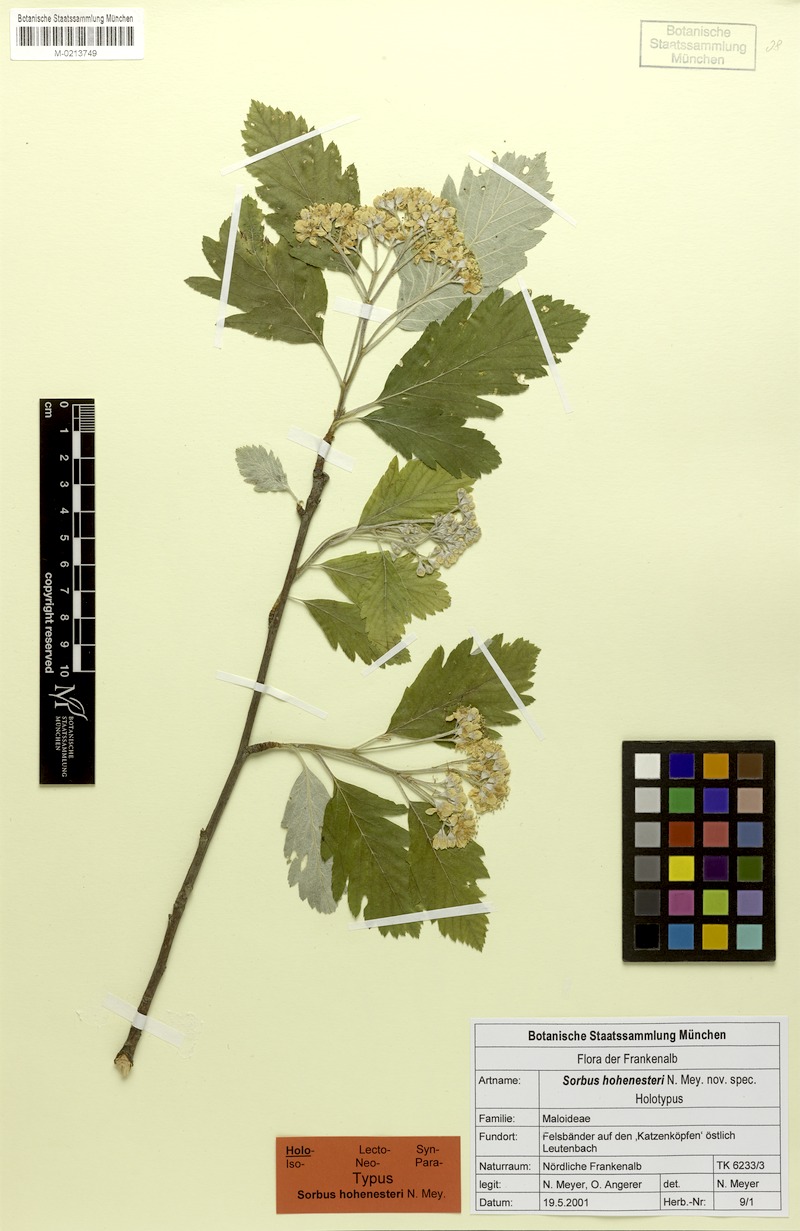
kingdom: Plantae
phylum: Tracheophyta
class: Magnoliopsida
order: Rosales
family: Rosaceae
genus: Hedlundia
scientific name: Hedlundia hohenesteri
